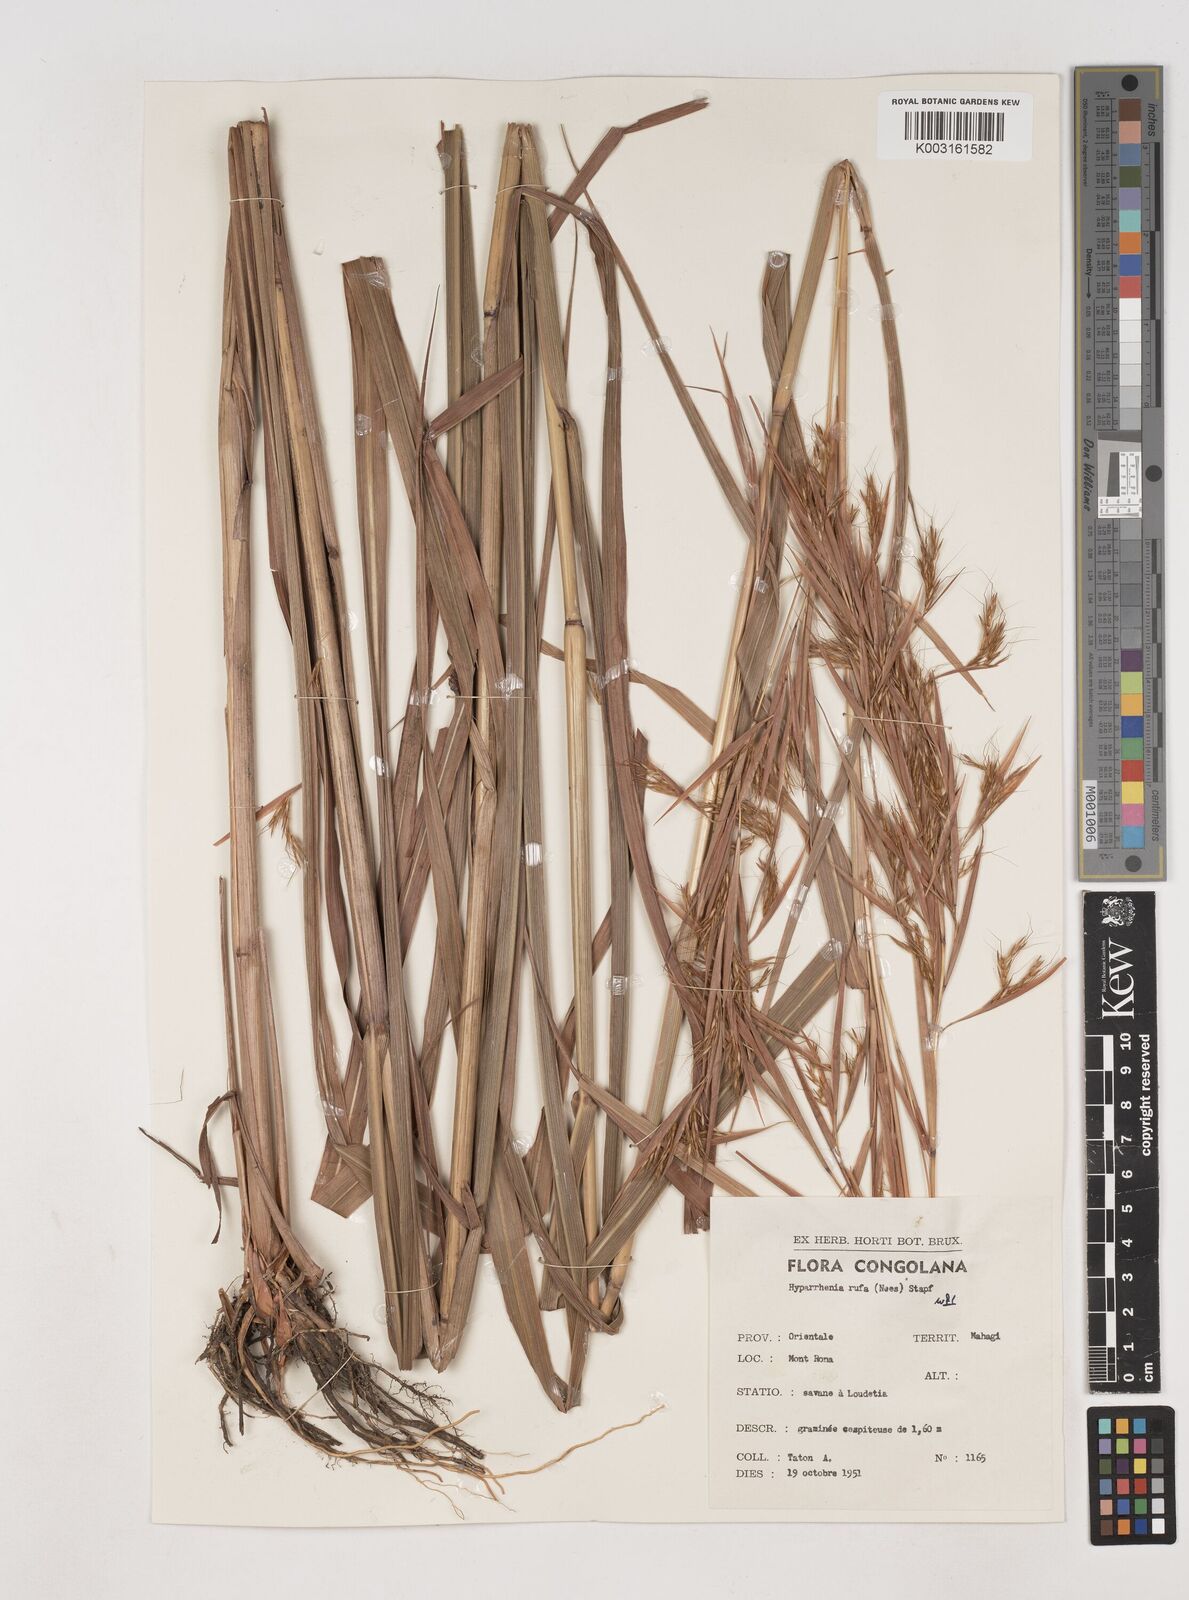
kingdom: Plantae
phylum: Tracheophyta
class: Liliopsida
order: Poales
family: Poaceae
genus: Hyparrhenia
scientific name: Hyparrhenia rufa
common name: Jaraguagrass
